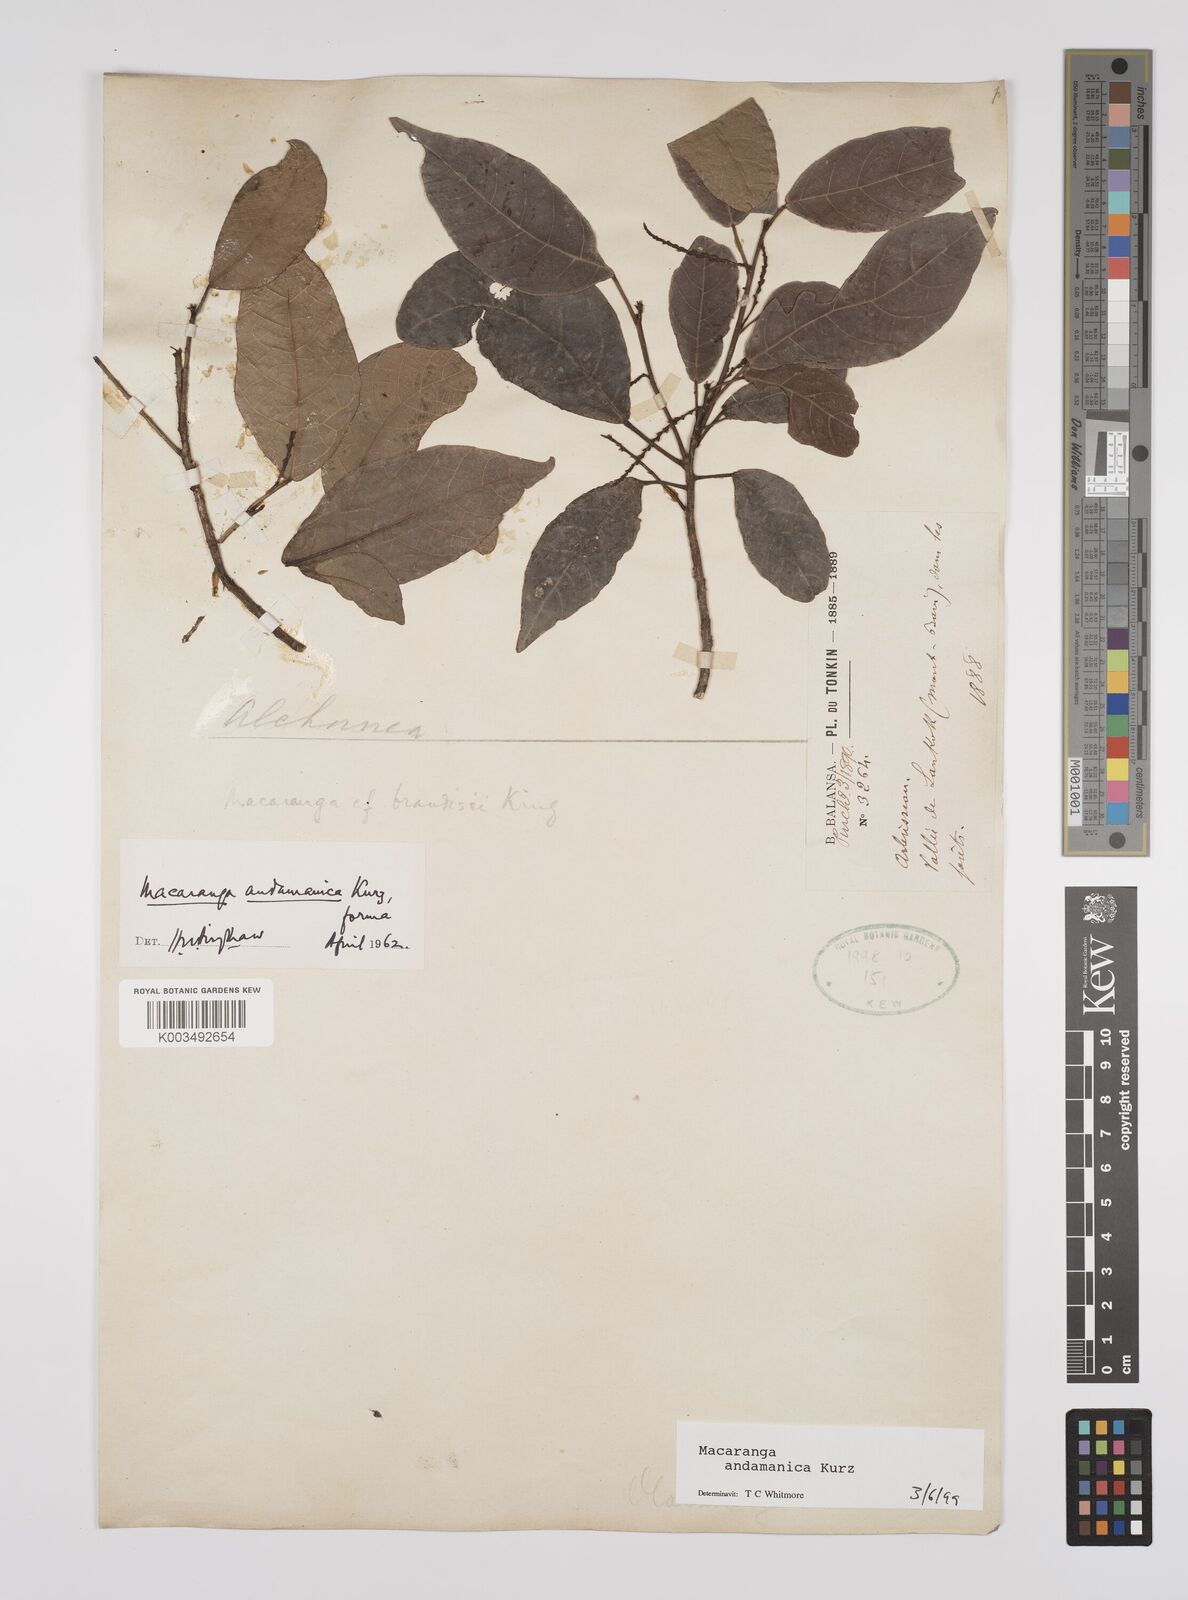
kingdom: Plantae
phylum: Tracheophyta
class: Magnoliopsida
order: Malpighiales
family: Euphorbiaceae
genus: Macaranga
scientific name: Macaranga andamanica
